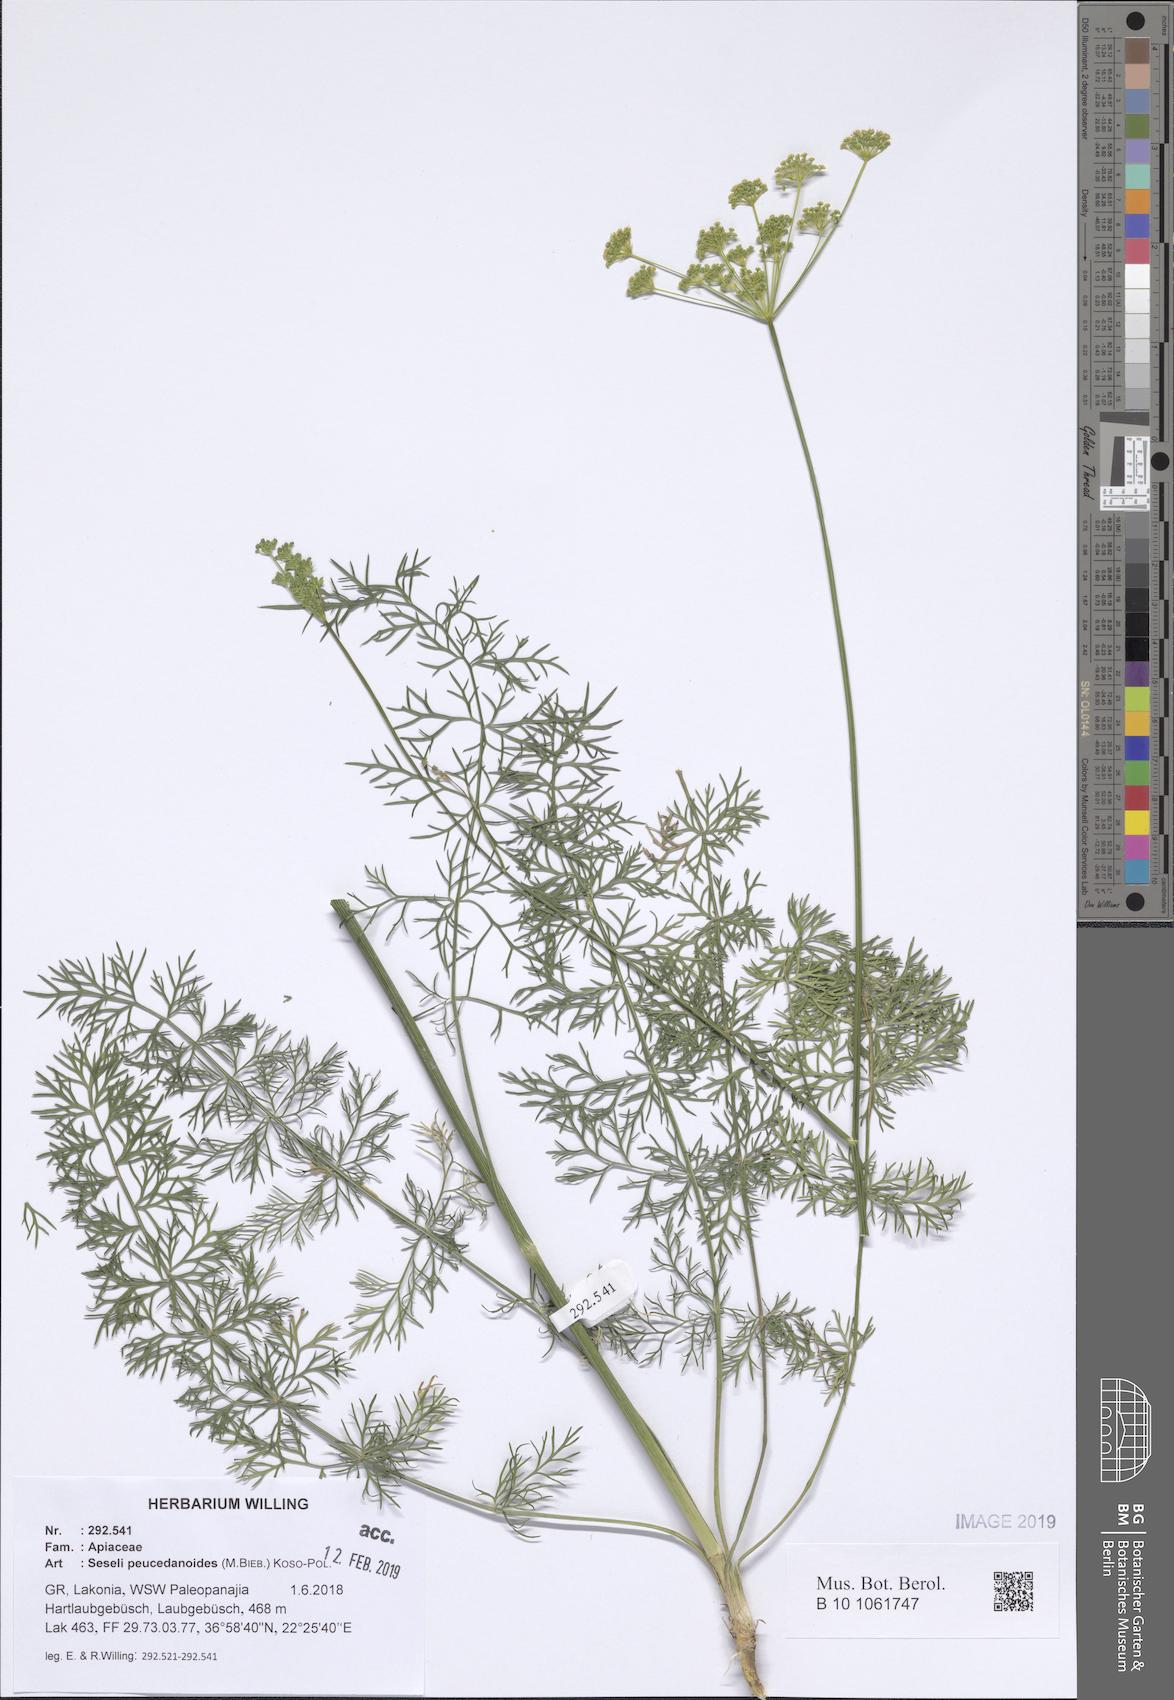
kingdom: Plantae
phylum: Tracheophyta
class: Magnoliopsida
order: Apiales
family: Apiaceae
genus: Gasparinia
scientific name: Gasparinia peucedanoides
